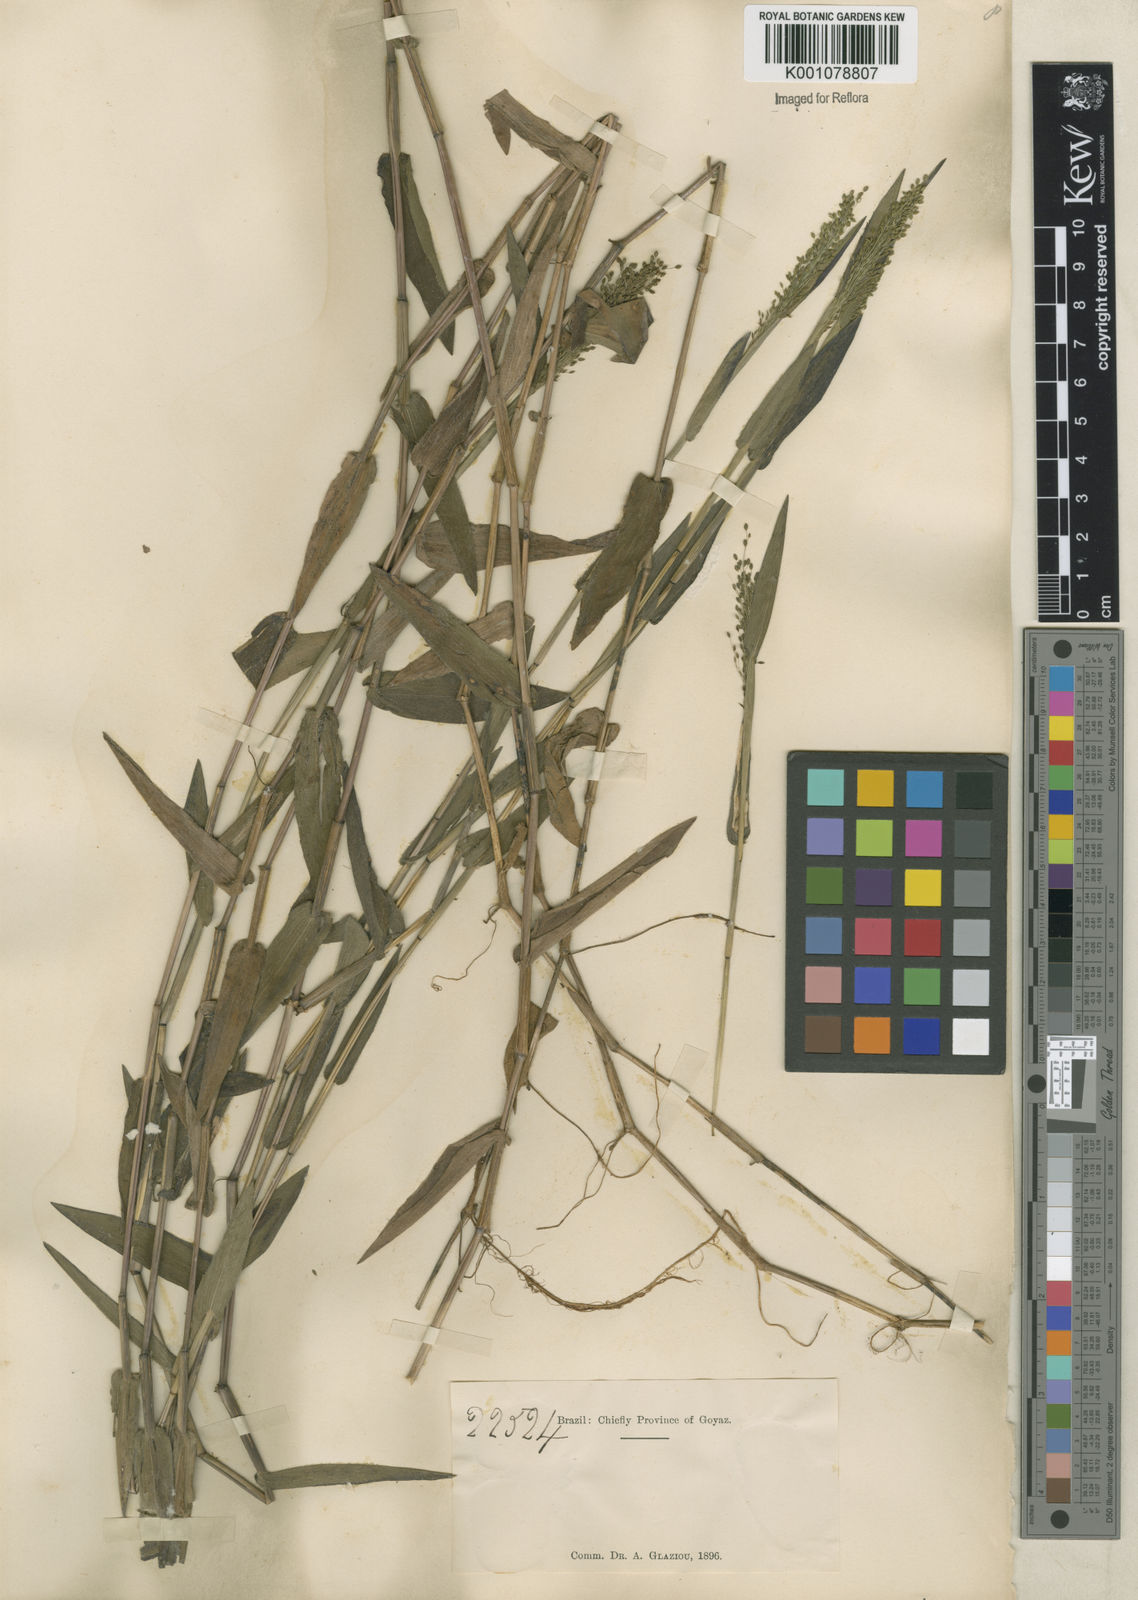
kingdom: Plantae
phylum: Tracheophyta
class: Liliopsida
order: Poales
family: Poaceae
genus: Trichanthecium
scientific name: Trichanthecium schwackeanum
